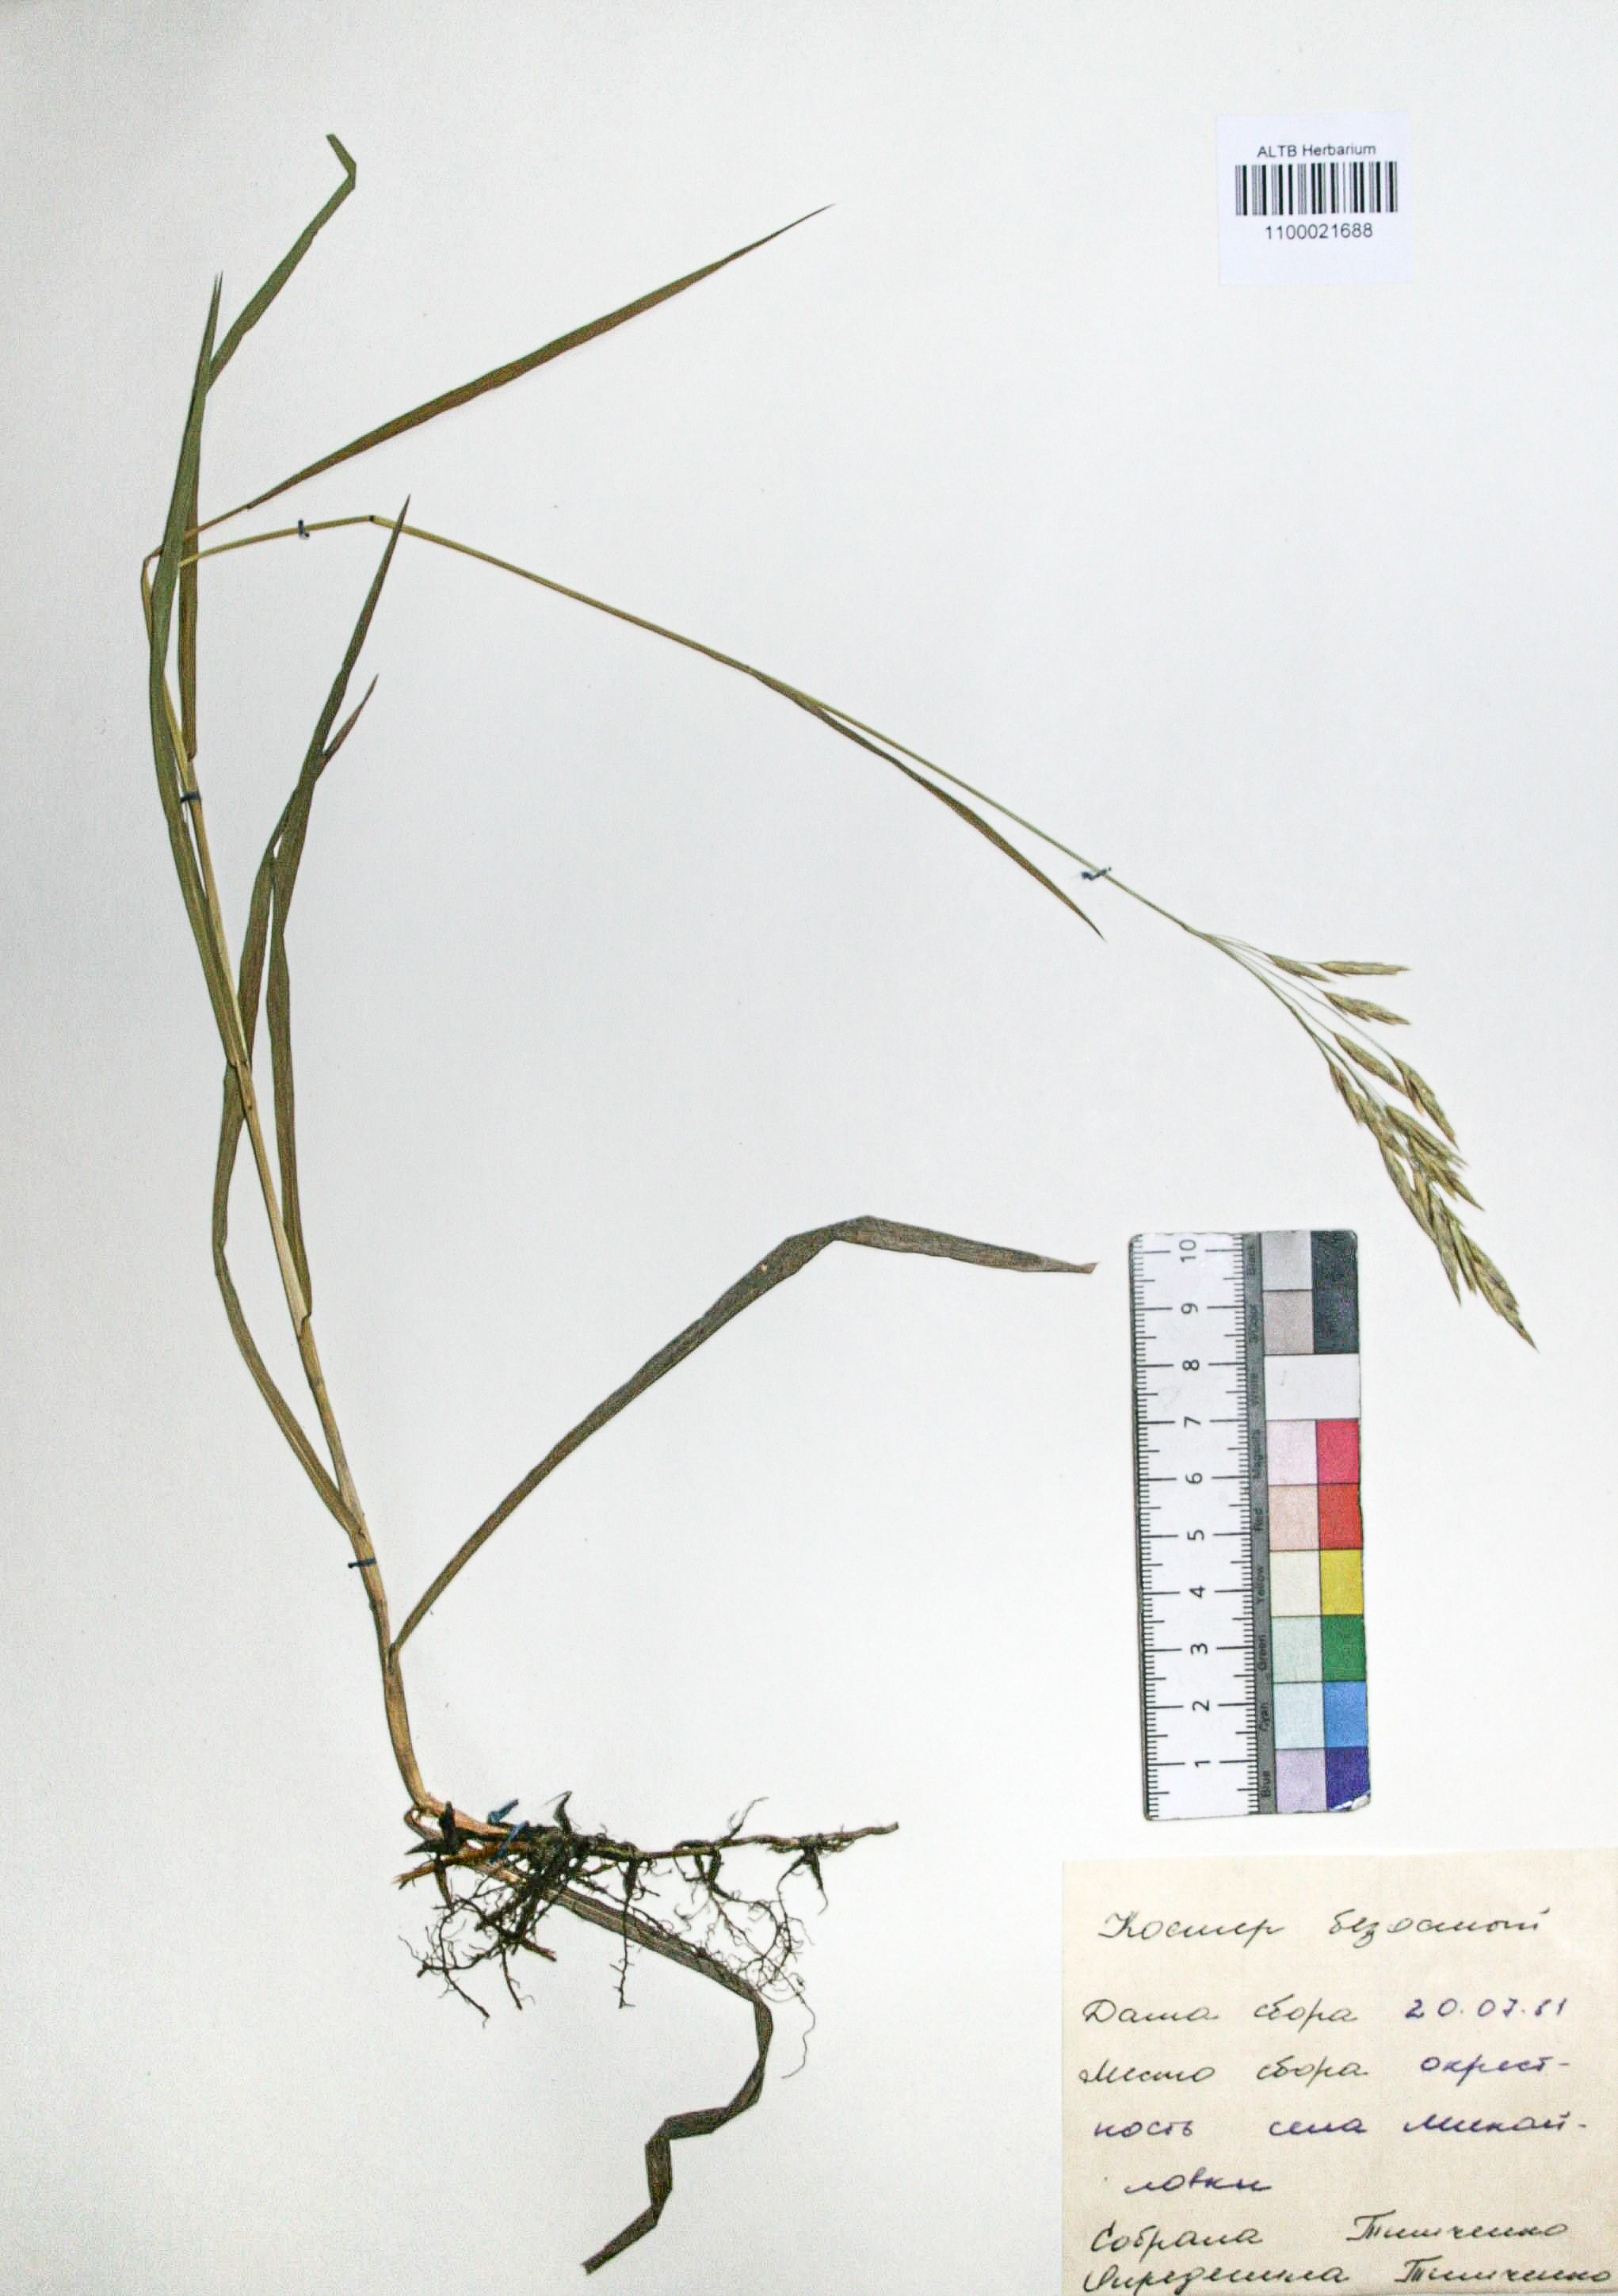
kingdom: Plantae
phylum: Tracheophyta
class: Liliopsida
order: Poales
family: Poaceae
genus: Bromus
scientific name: Bromus inermis
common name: Smooth brome
